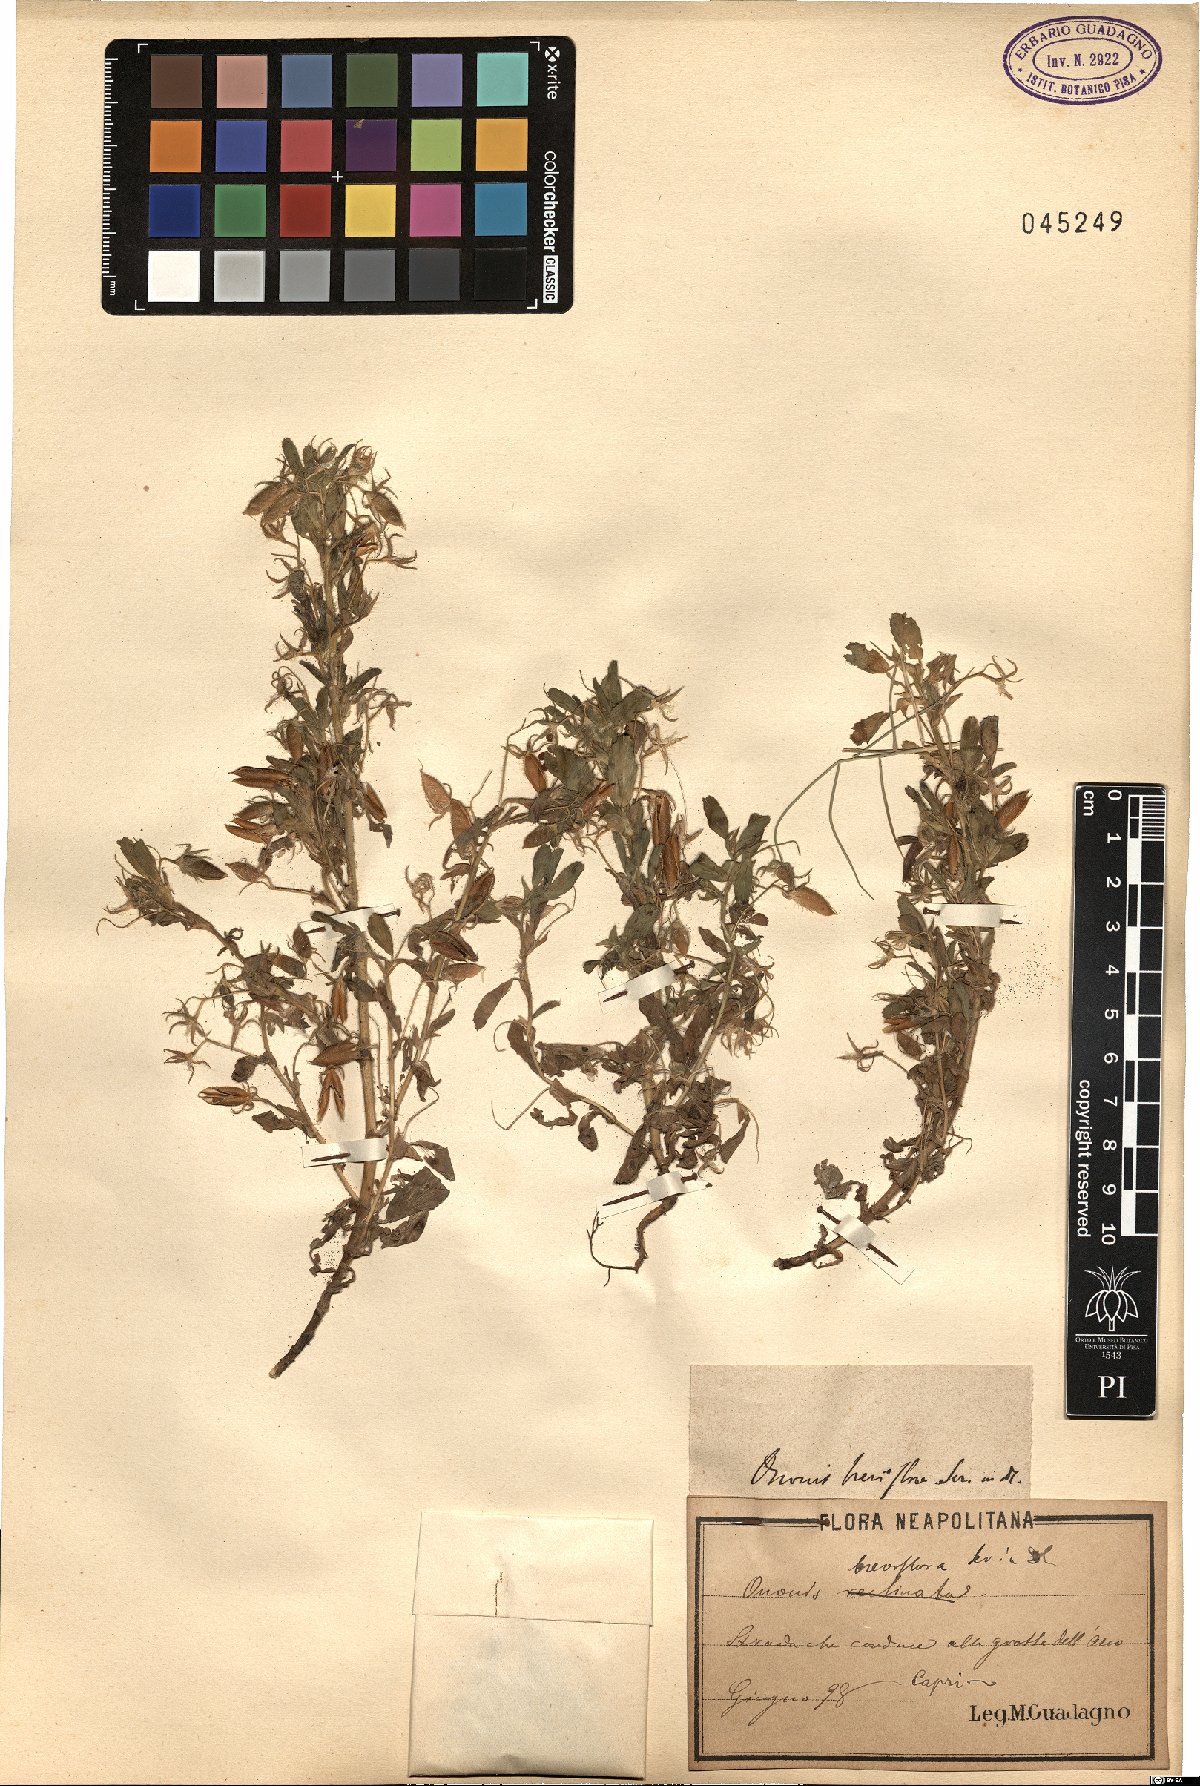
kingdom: Plantae
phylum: Tracheophyta
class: Magnoliopsida
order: Fabales
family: Fabaceae
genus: Ononis
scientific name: Ononis viscosa
